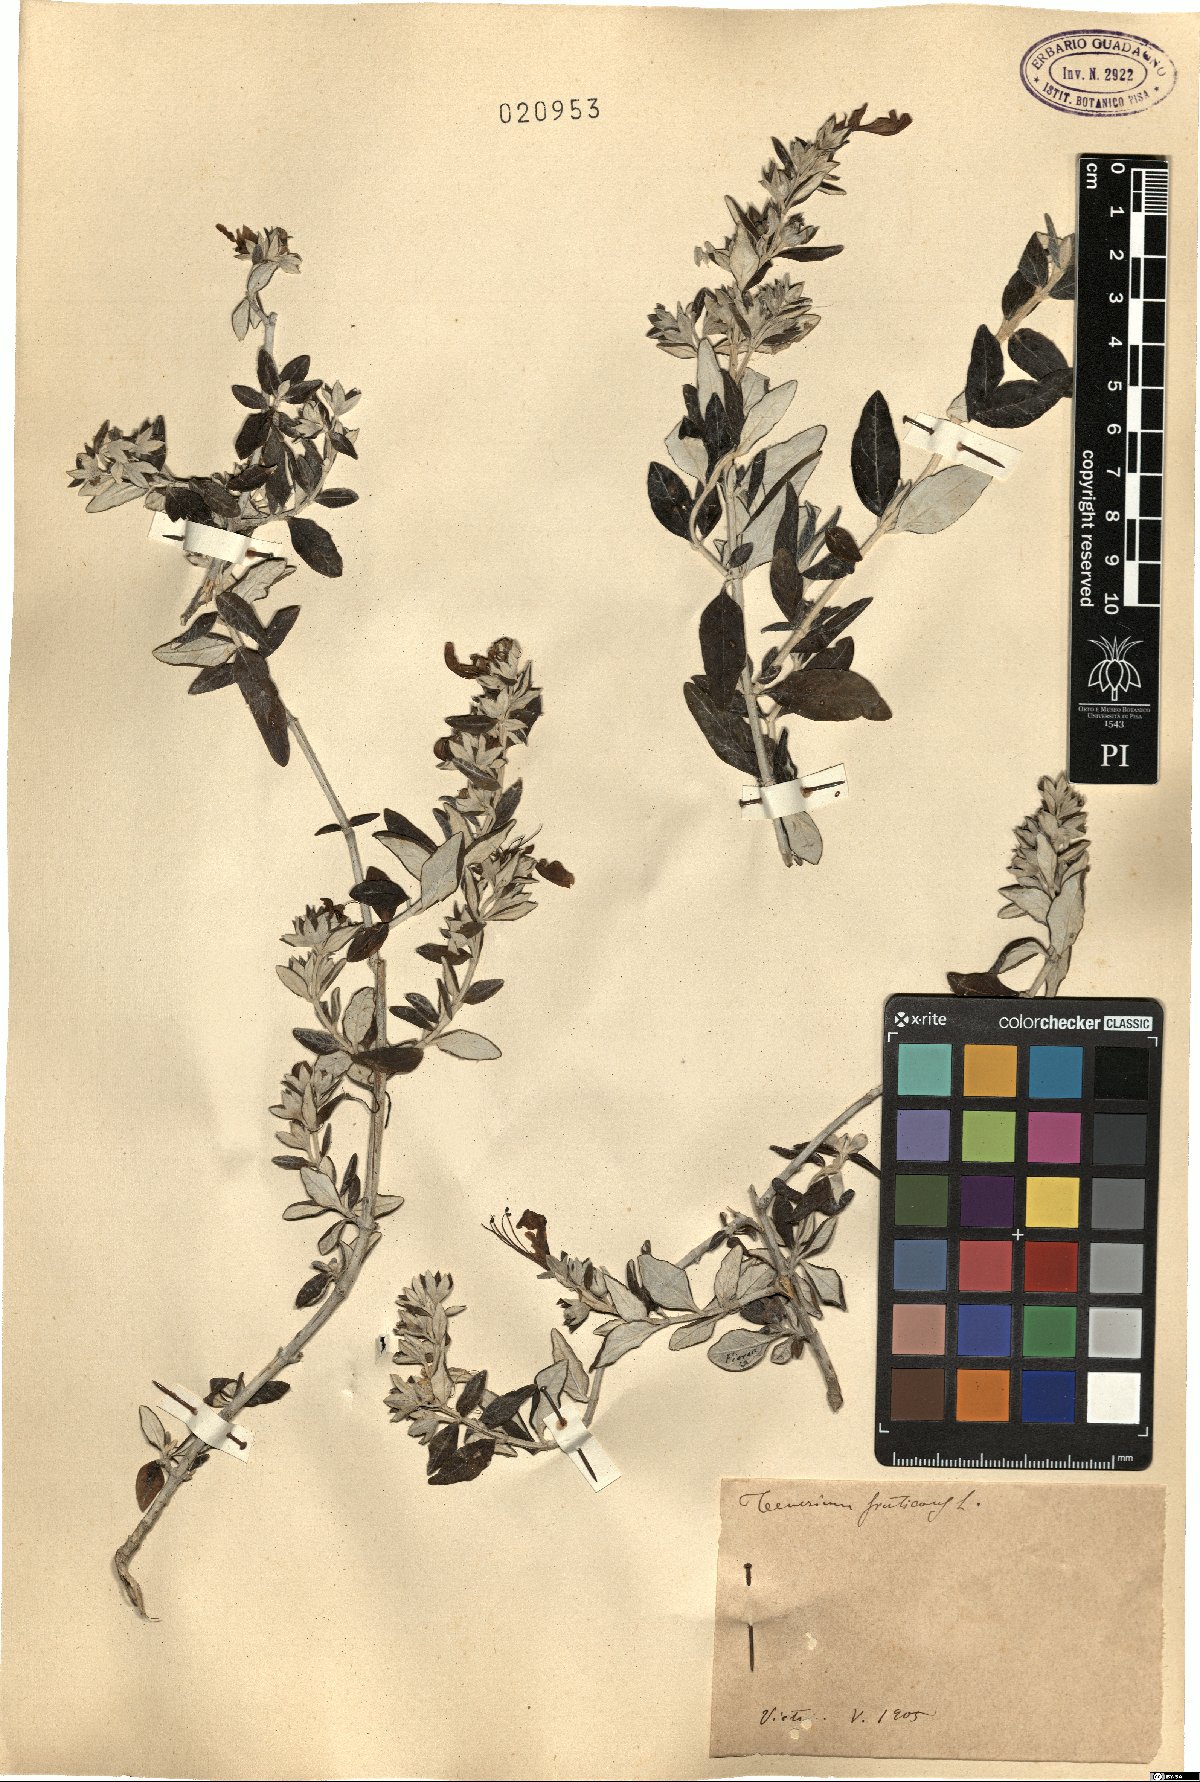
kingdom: Plantae
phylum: Tracheophyta
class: Magnoliopsida
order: Lamiales
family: Lamiaceae
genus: Teucrium
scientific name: Teucrium fruticans
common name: Shrubby germander
